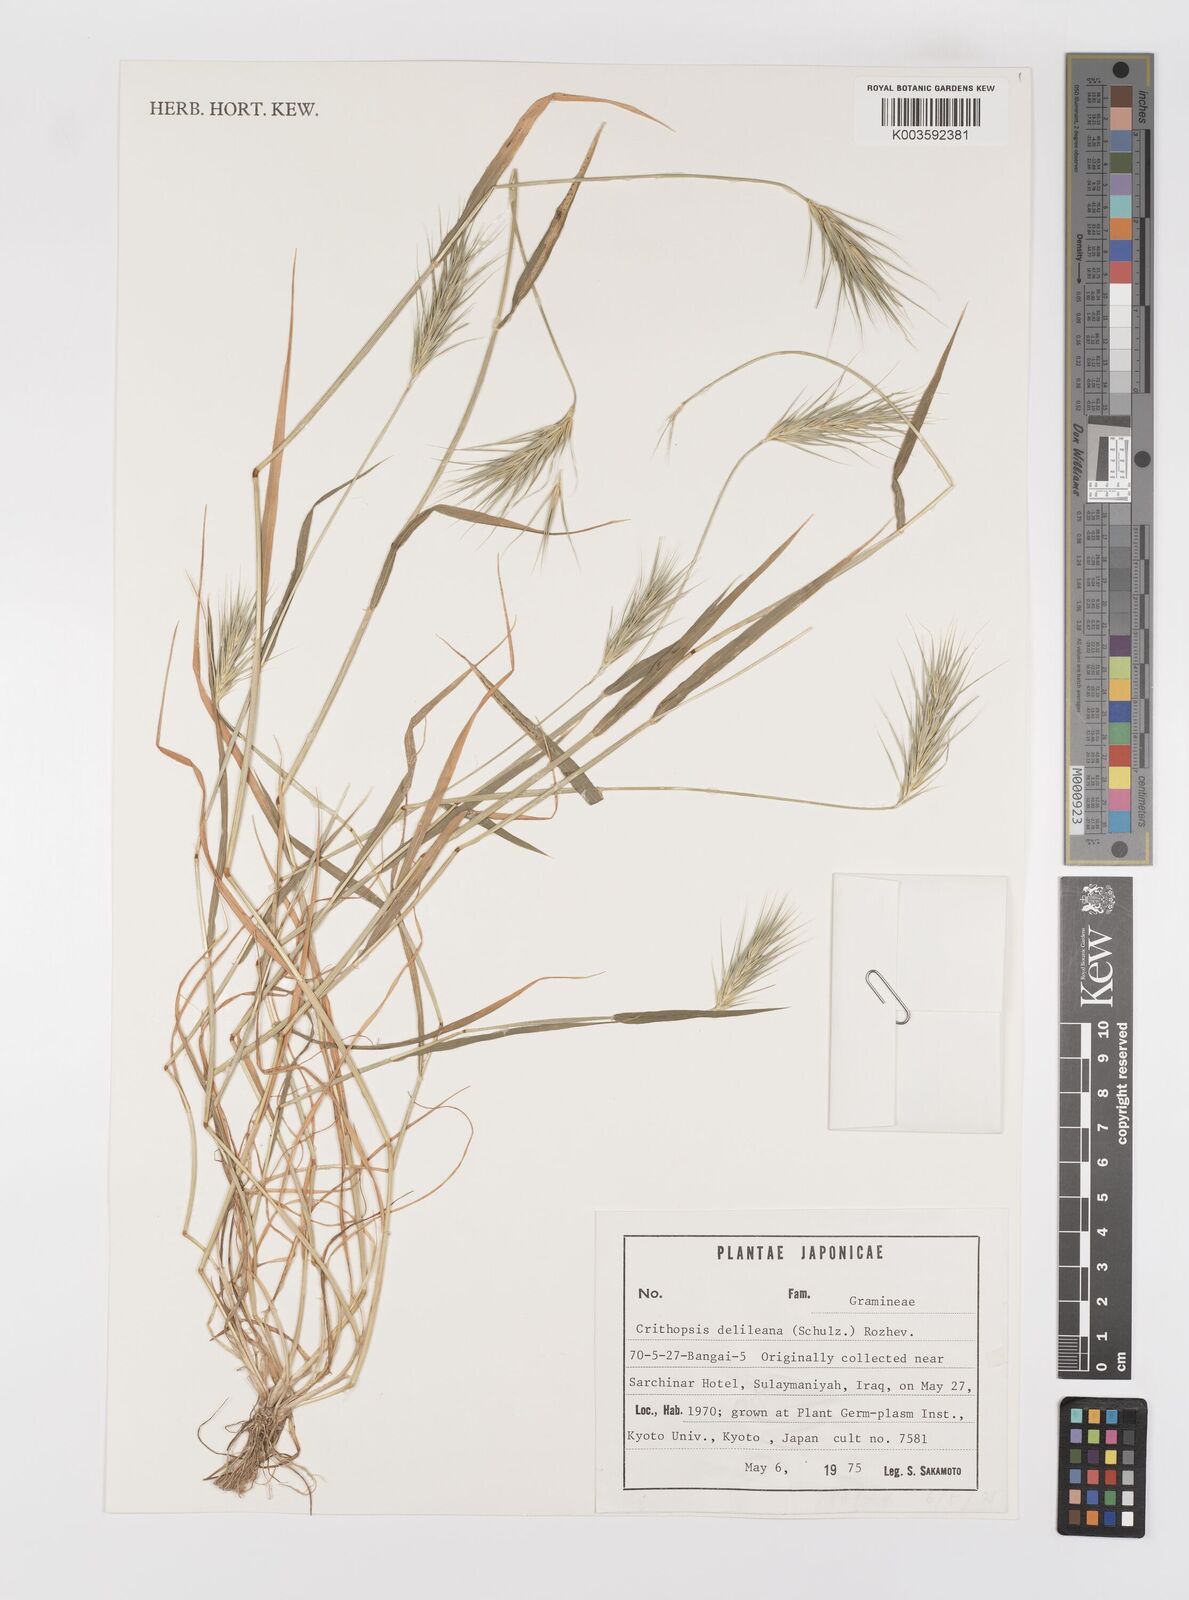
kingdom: Plantae
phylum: Tracheophyta
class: Liliopsida
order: Poales
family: Poaceae
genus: Crithopsis
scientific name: Crithopsis delileana
